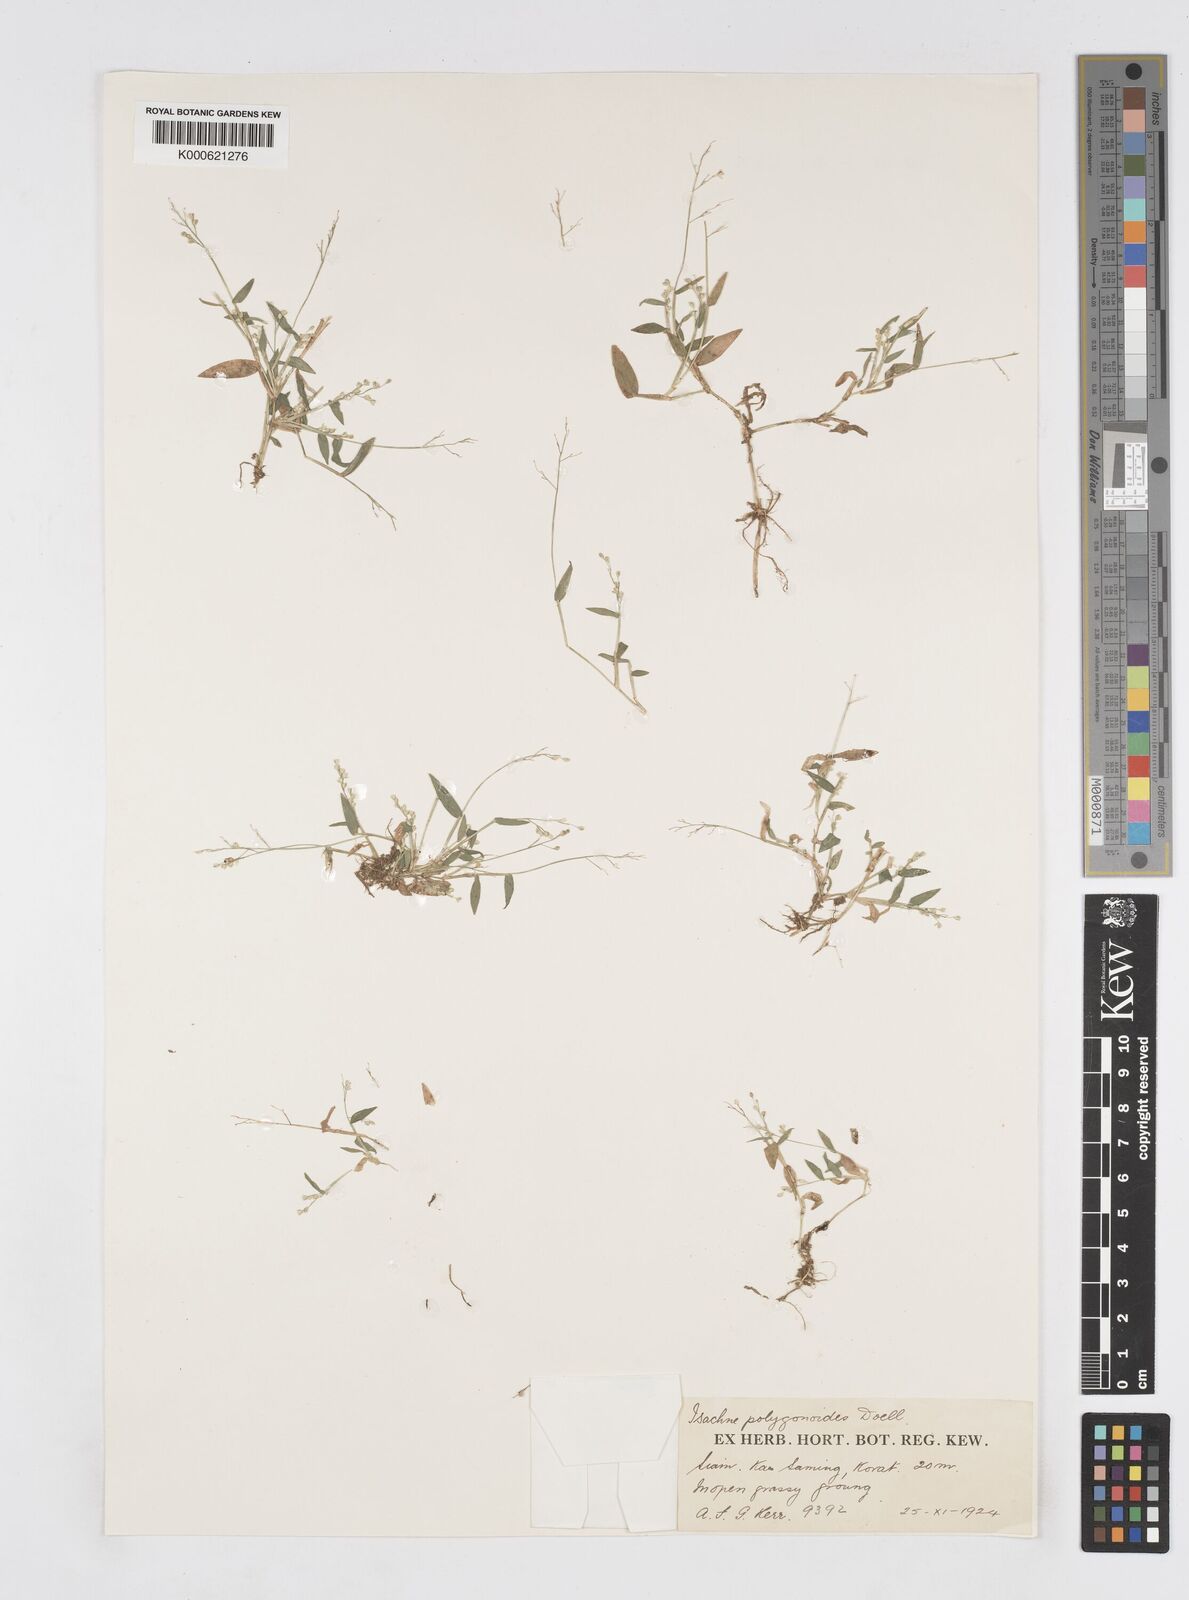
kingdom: Plantae
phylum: Tracheophyta
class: Liliopsida
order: Poales
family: Poaceae
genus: Isachne
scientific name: Isachne
